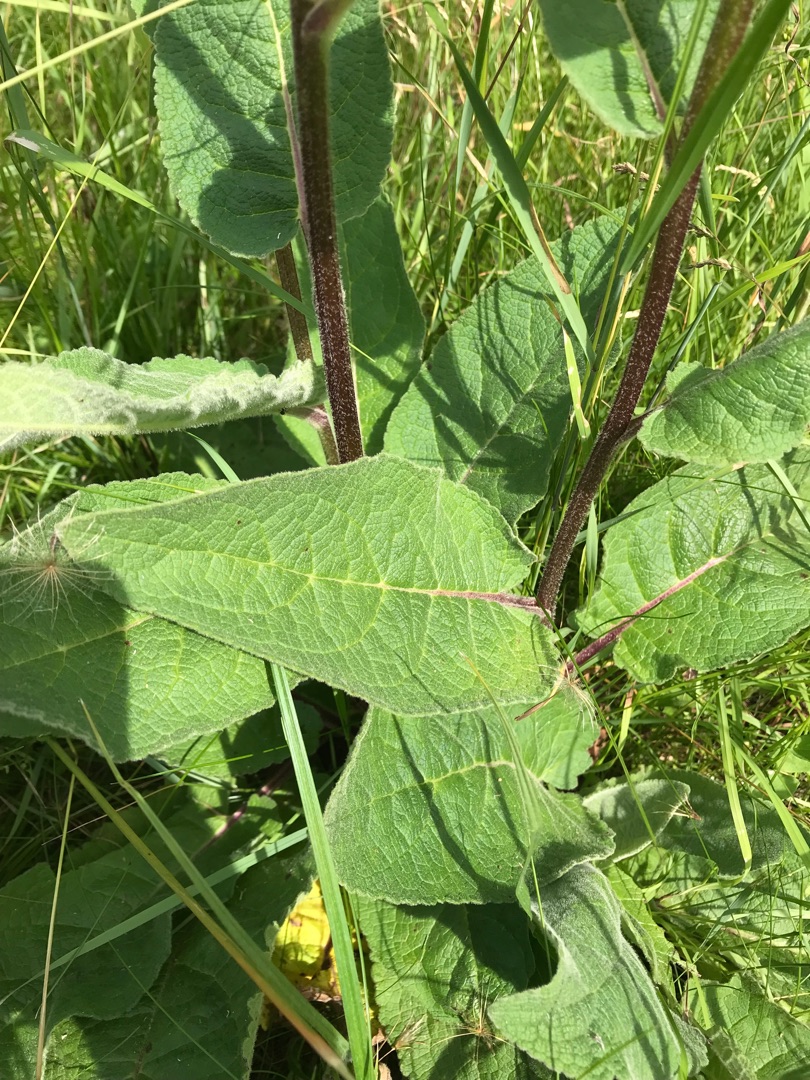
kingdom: Plantae
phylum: Tracheophyta
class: Magnoliopsida
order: Lamiales
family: Scrophulariaceae
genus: Verbascum
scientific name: Verbascum nigrum
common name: Mørk kongelys
